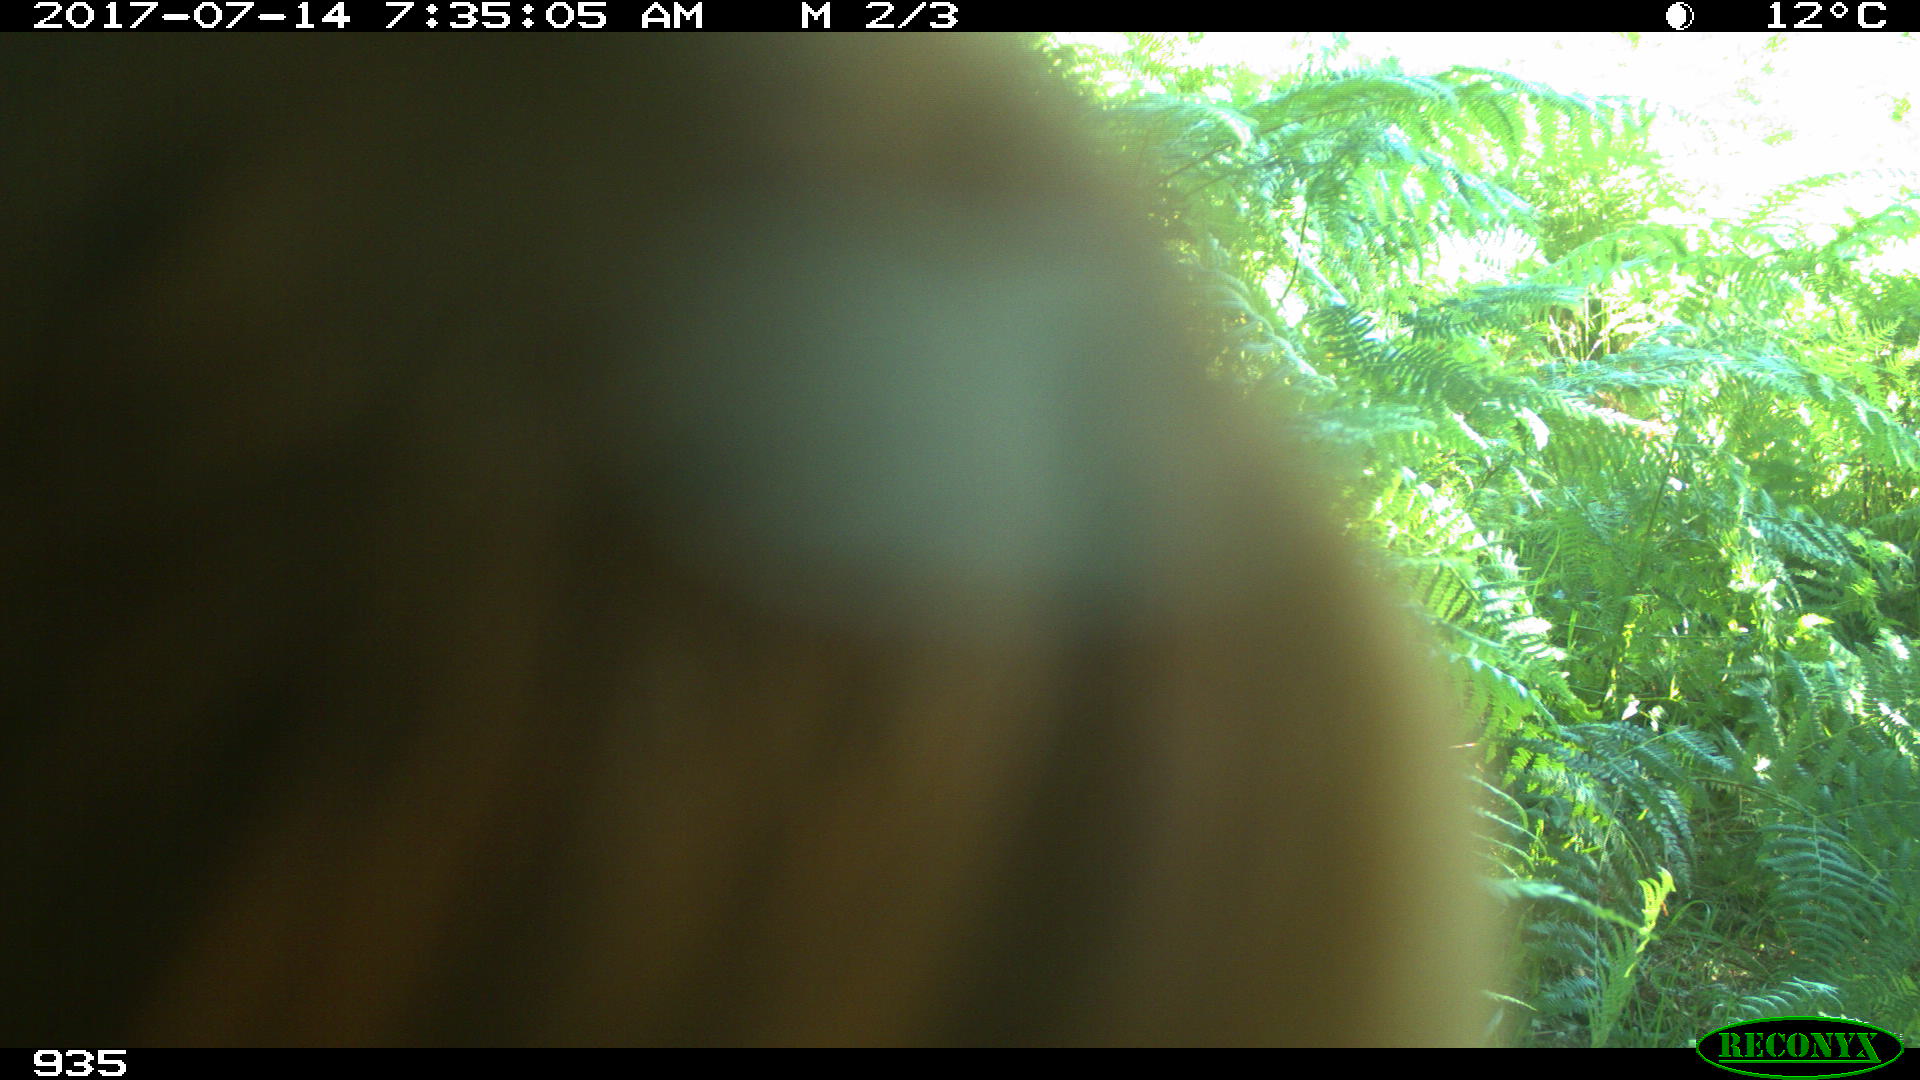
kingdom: Animalia
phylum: Chordata
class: Mammalia
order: Artiodactyla
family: Bovidae
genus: Bos
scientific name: Bos taurus
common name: Domesticated cattle
